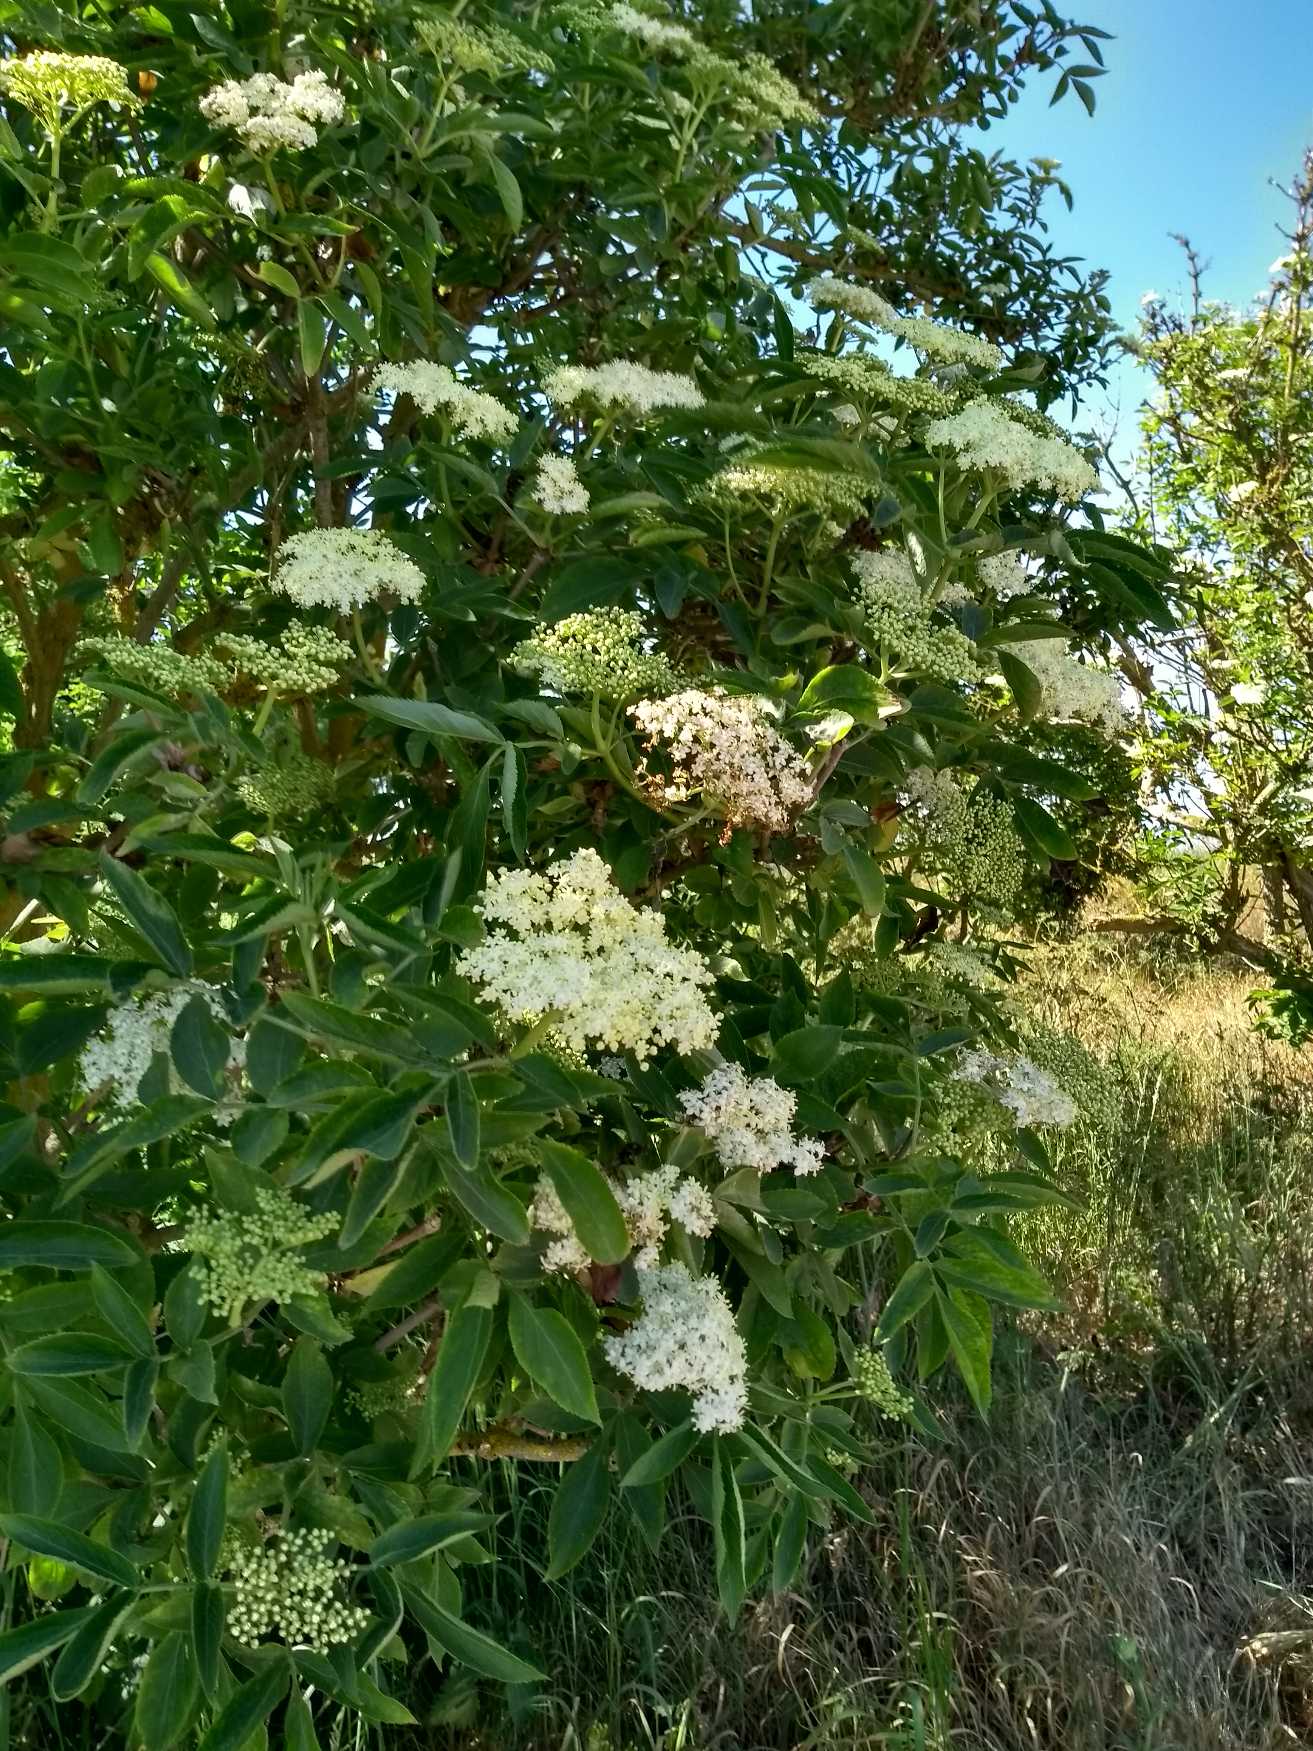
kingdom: Plantae
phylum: Tracheophyta
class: Magnoliopsida
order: Dipsacales
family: Viburnaceae
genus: Sambucus
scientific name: Sambucus nigra
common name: Almindelig hyld
